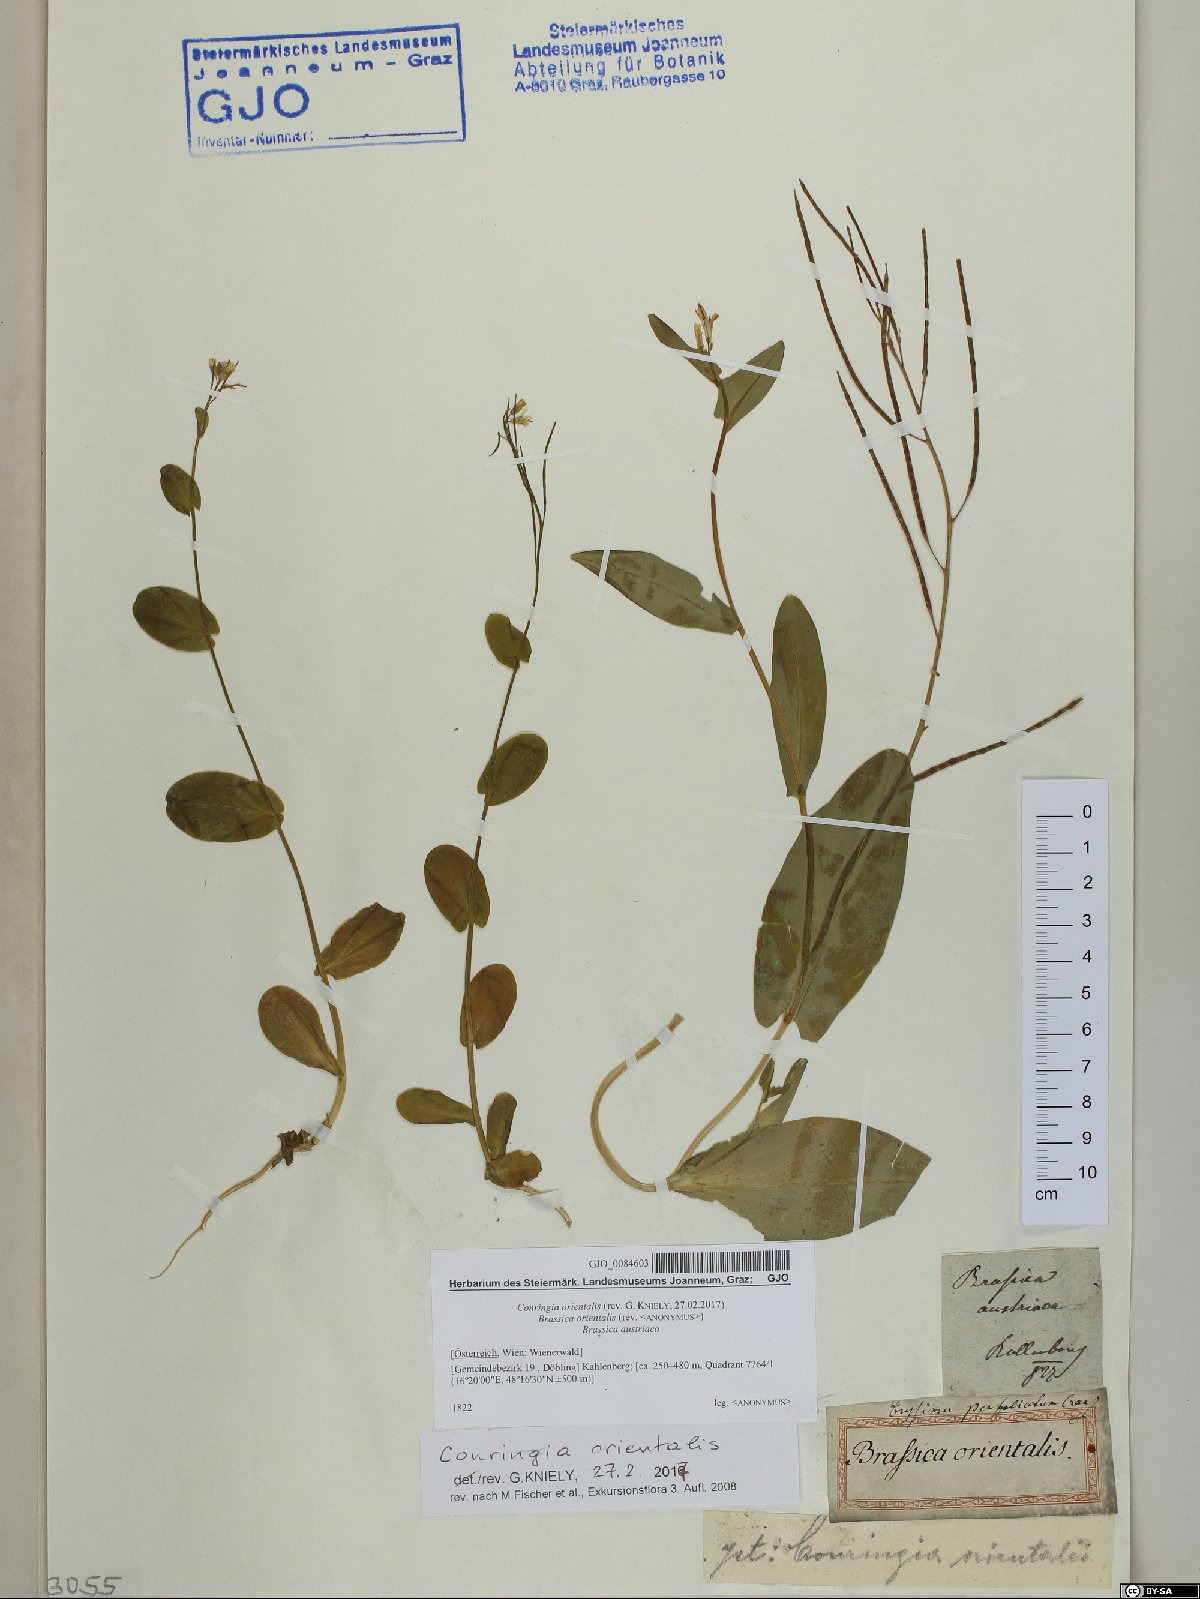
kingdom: Plantae
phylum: Tracheophyta
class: Magnoliopsida
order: Brassicales
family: Brassicaceae
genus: Conringia
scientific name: Conringia orientalis
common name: Hare's ear mustard
